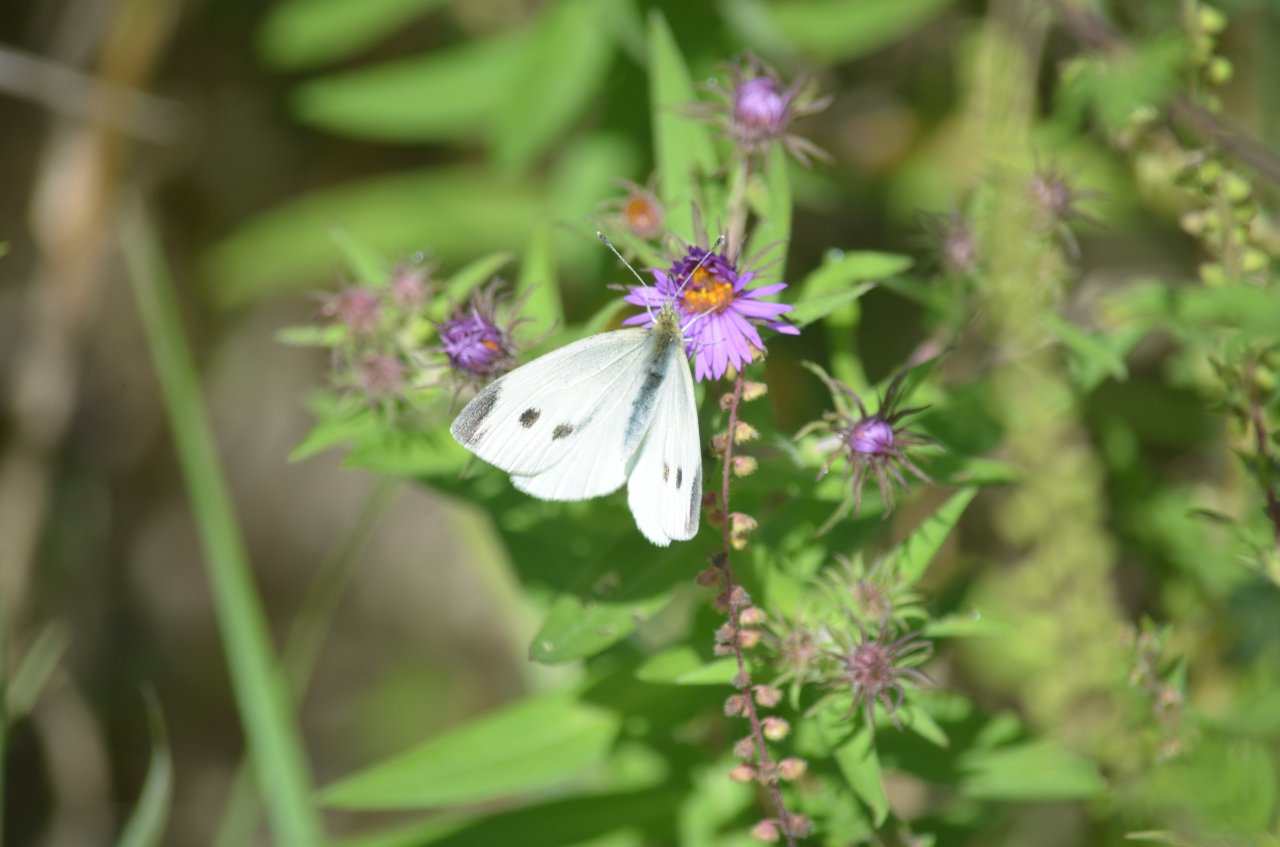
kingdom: Animalia
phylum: Arthropoda
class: Insecta
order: Lepidoptera
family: Pieridae
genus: Pieris
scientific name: Pieris rapae
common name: Cabbage White
